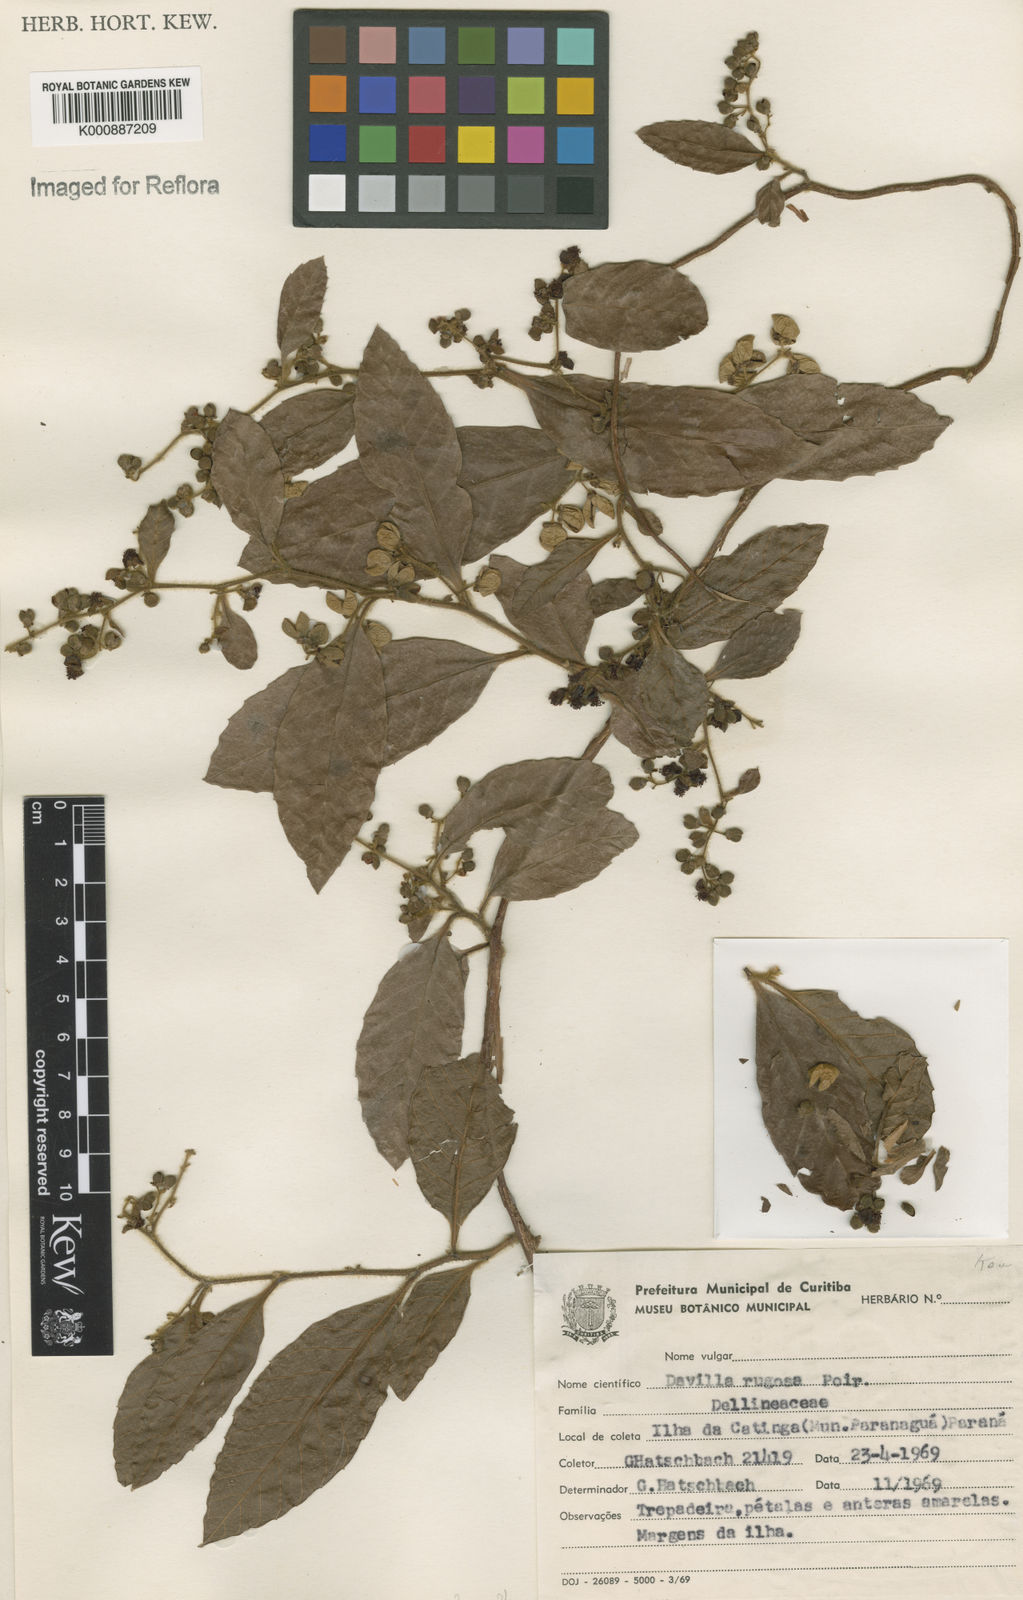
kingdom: Plantae
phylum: Tracheophyta
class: Magnoliopsida
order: Dilleniales
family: Dilleniaceae
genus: Davilla
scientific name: Davilla rugosa
